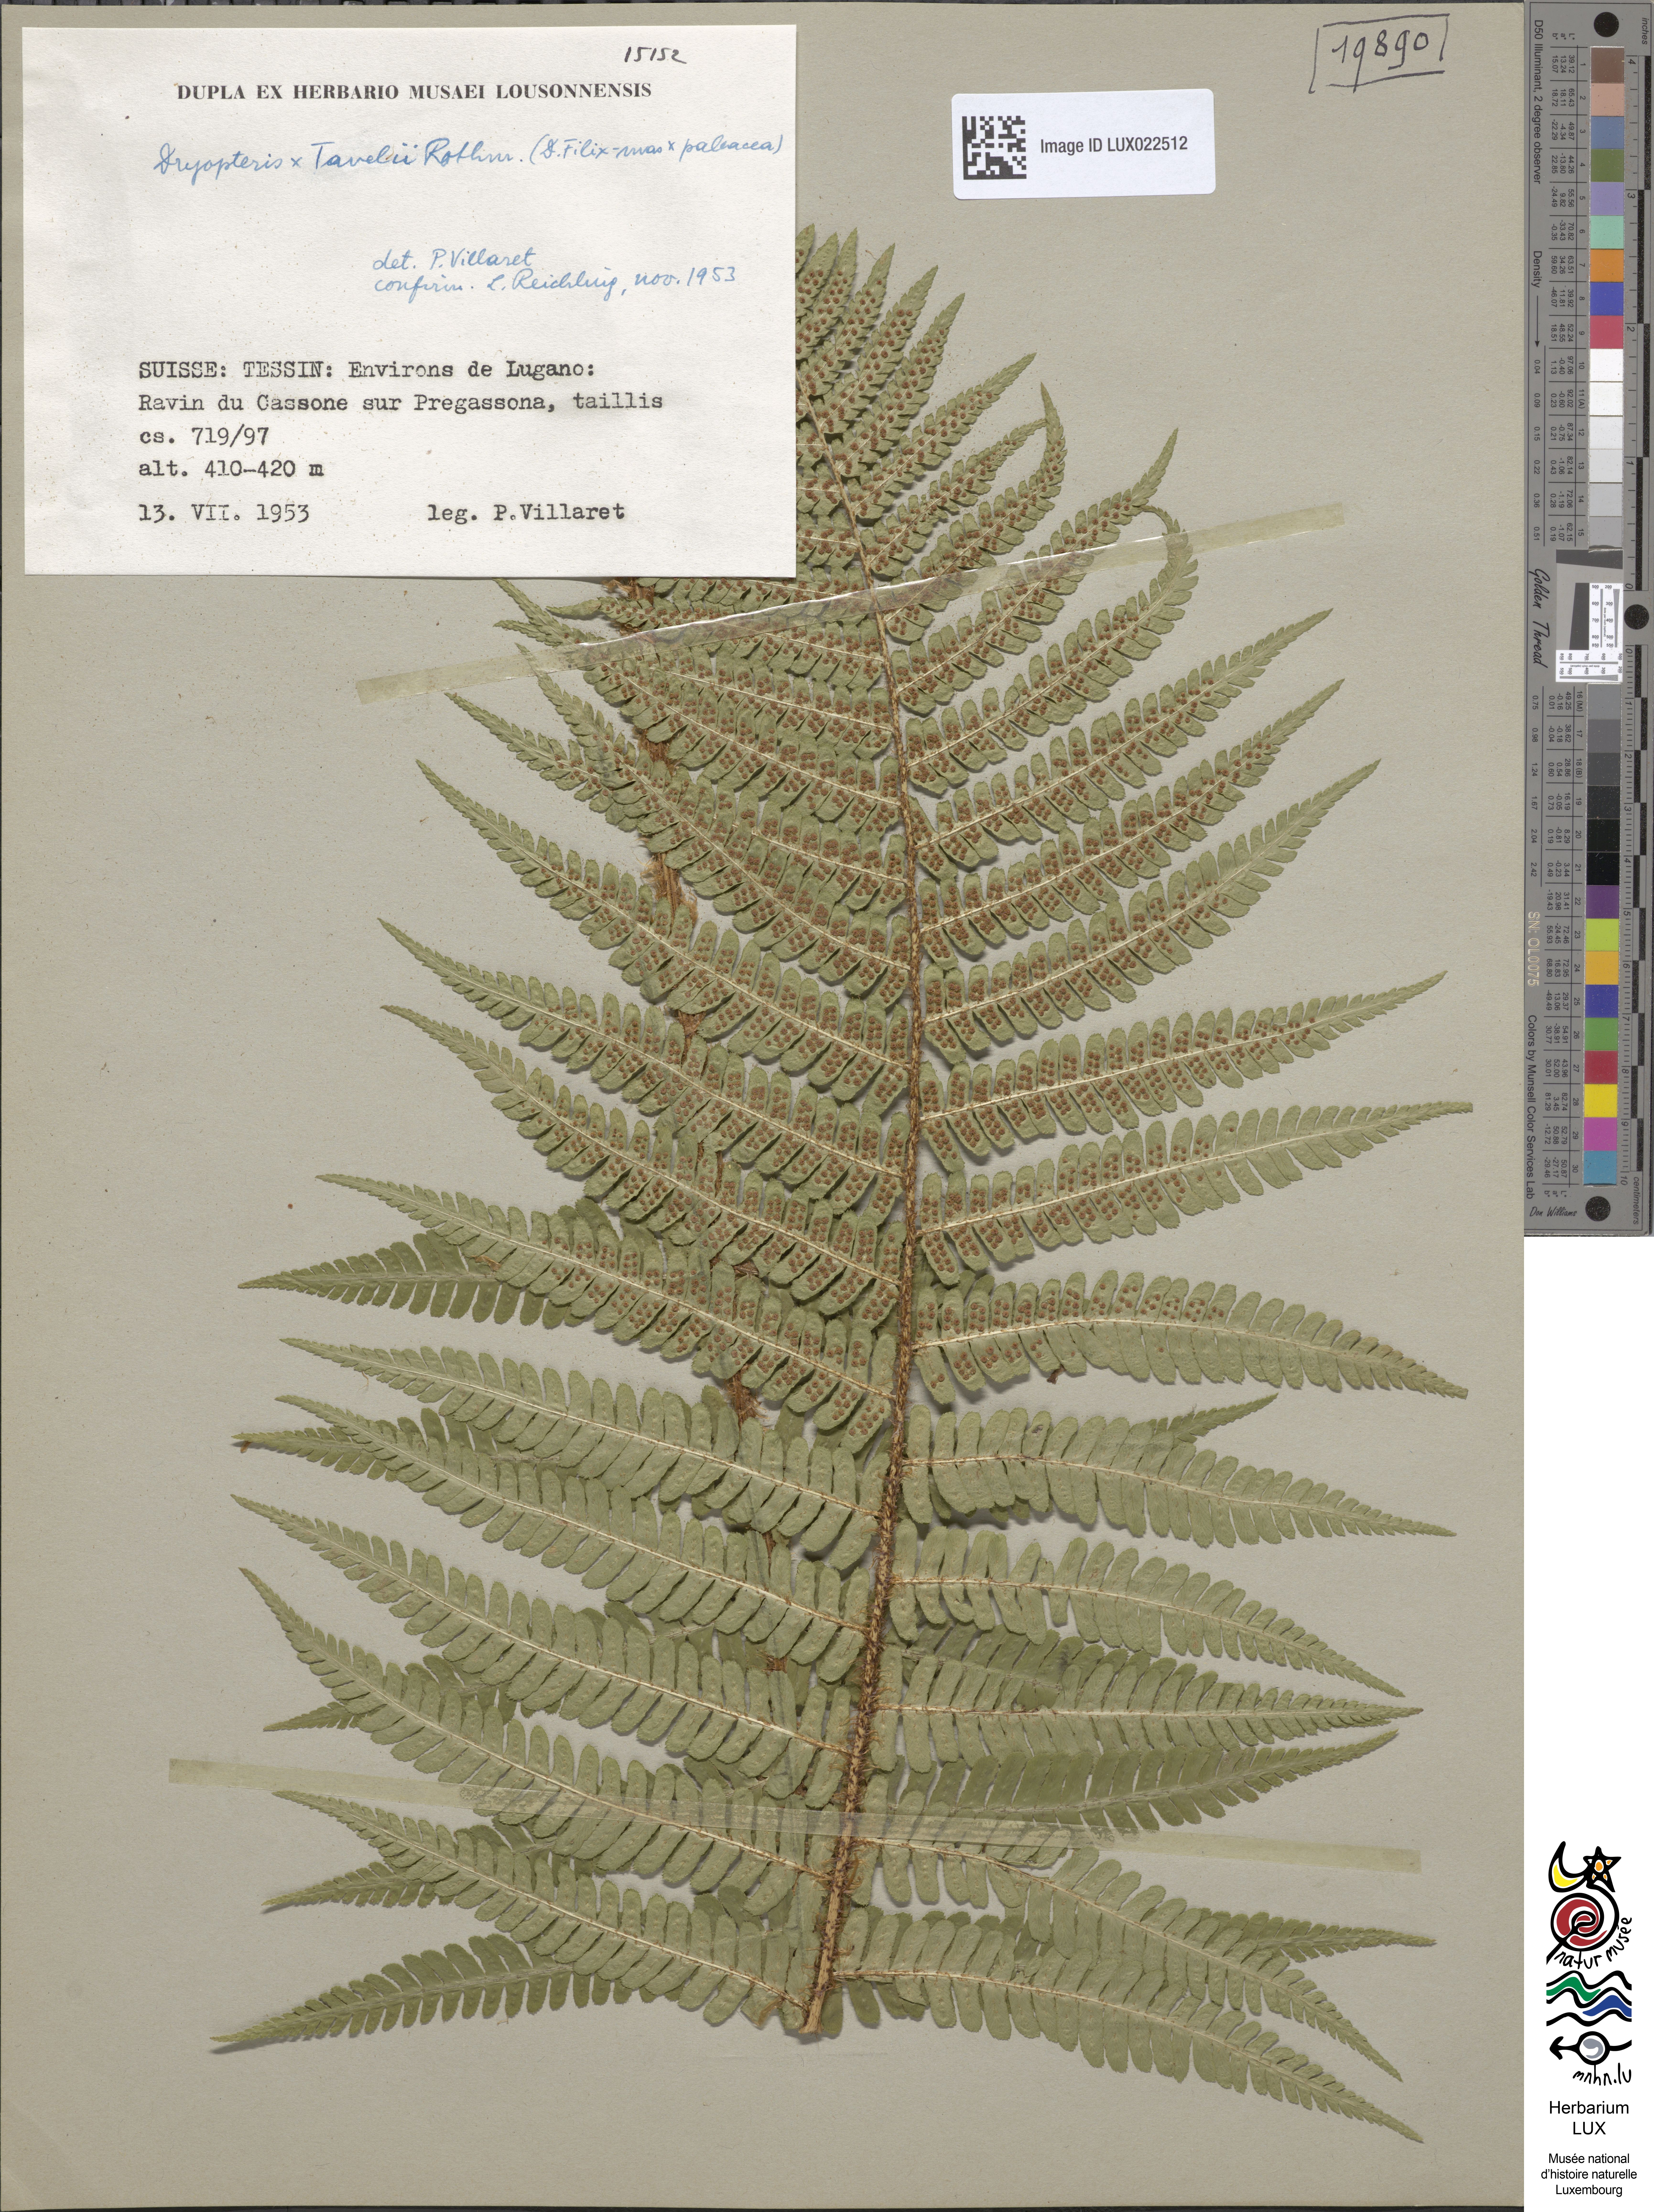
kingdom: Plantae
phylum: Tracheophyta
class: Polypodiopsida
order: Polypodiales
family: Dryopteridaceae
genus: Dryopteris
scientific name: Dryopteris borreri
